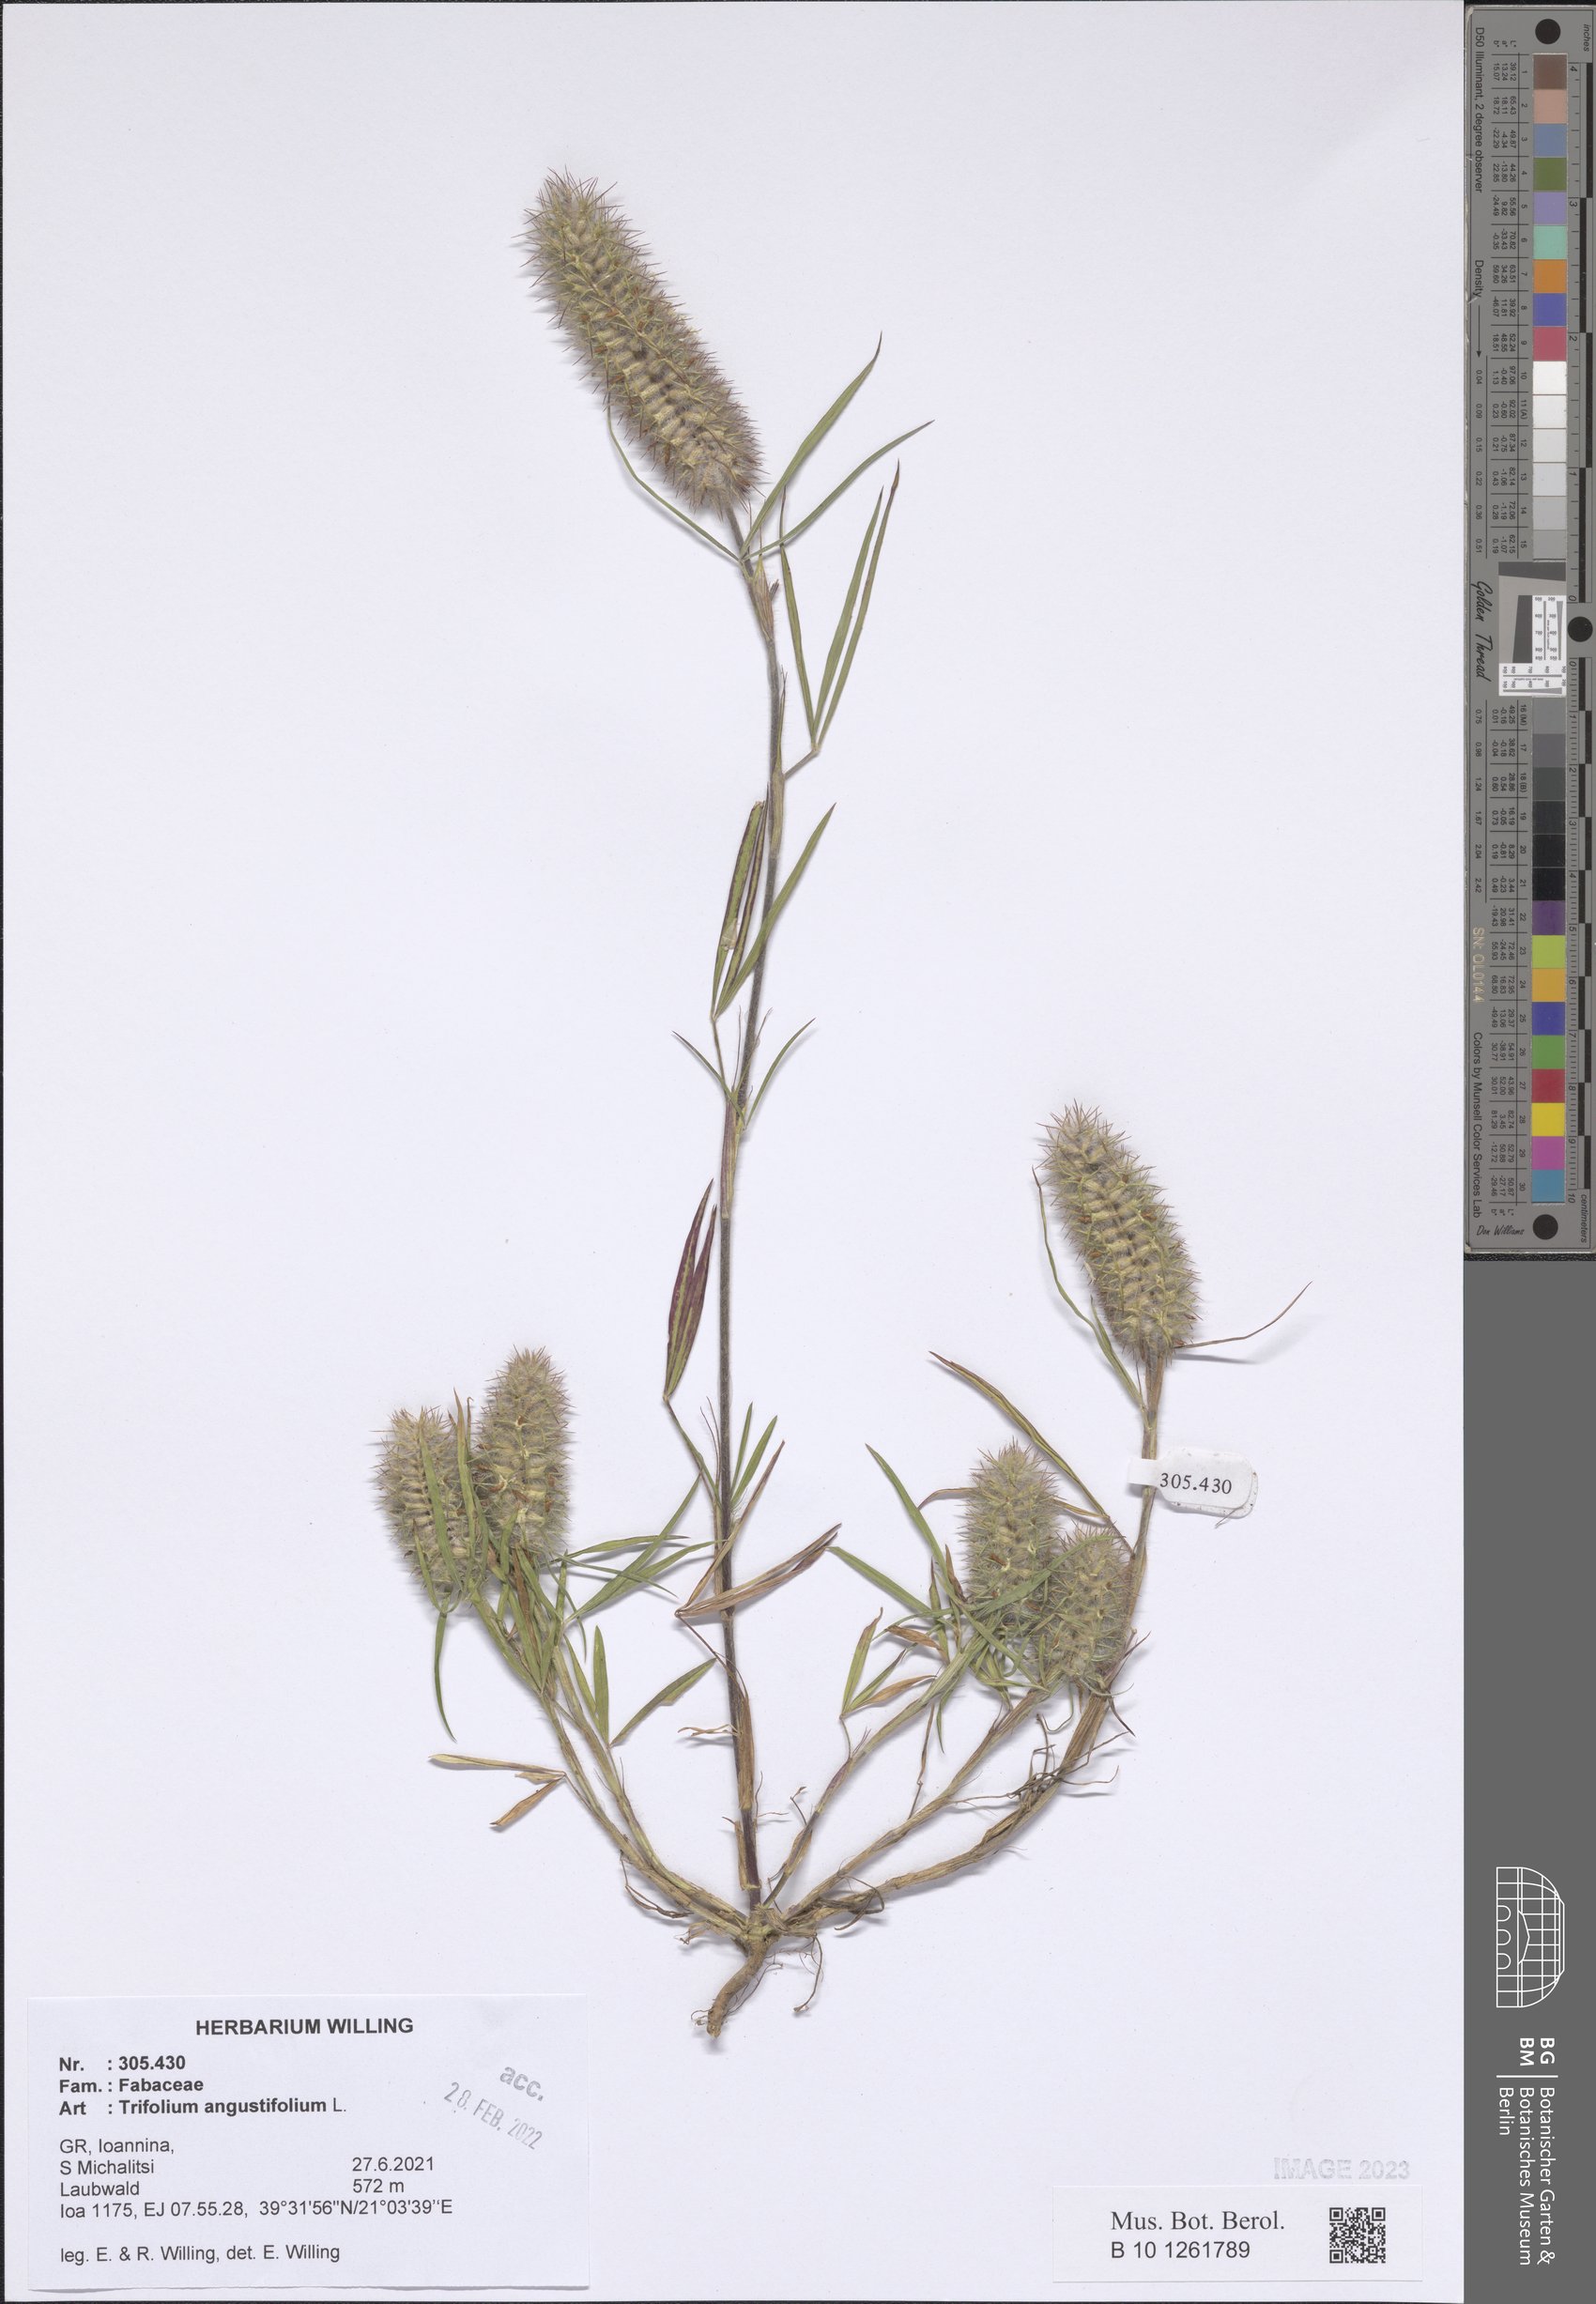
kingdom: Plantae
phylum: Tracheophyta
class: Magnoliopsida
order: Fabales
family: Fabaceae
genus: Trifolium
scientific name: Trifolium angustifolium
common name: Narrow clover
